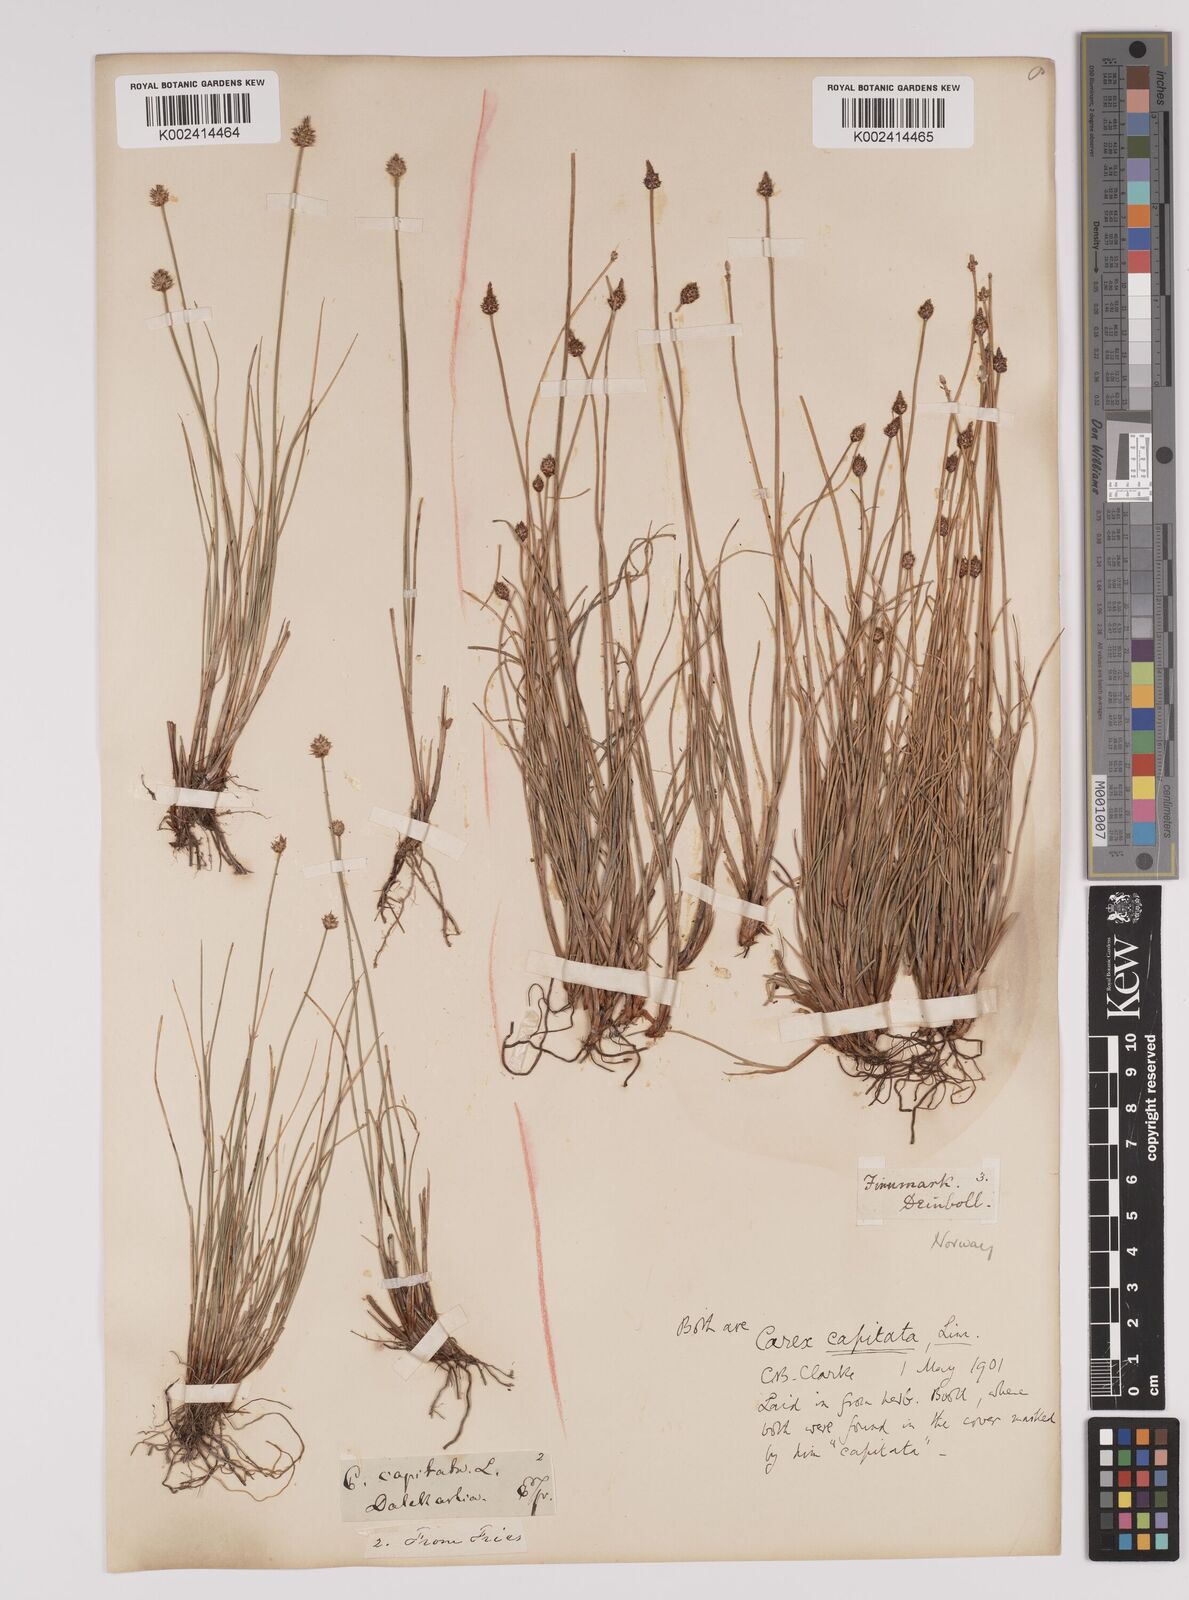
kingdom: Plantae
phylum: Tracheophyta
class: Liliopsida
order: Poales
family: Cyperaceae
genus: Carex
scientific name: Carex capitata
